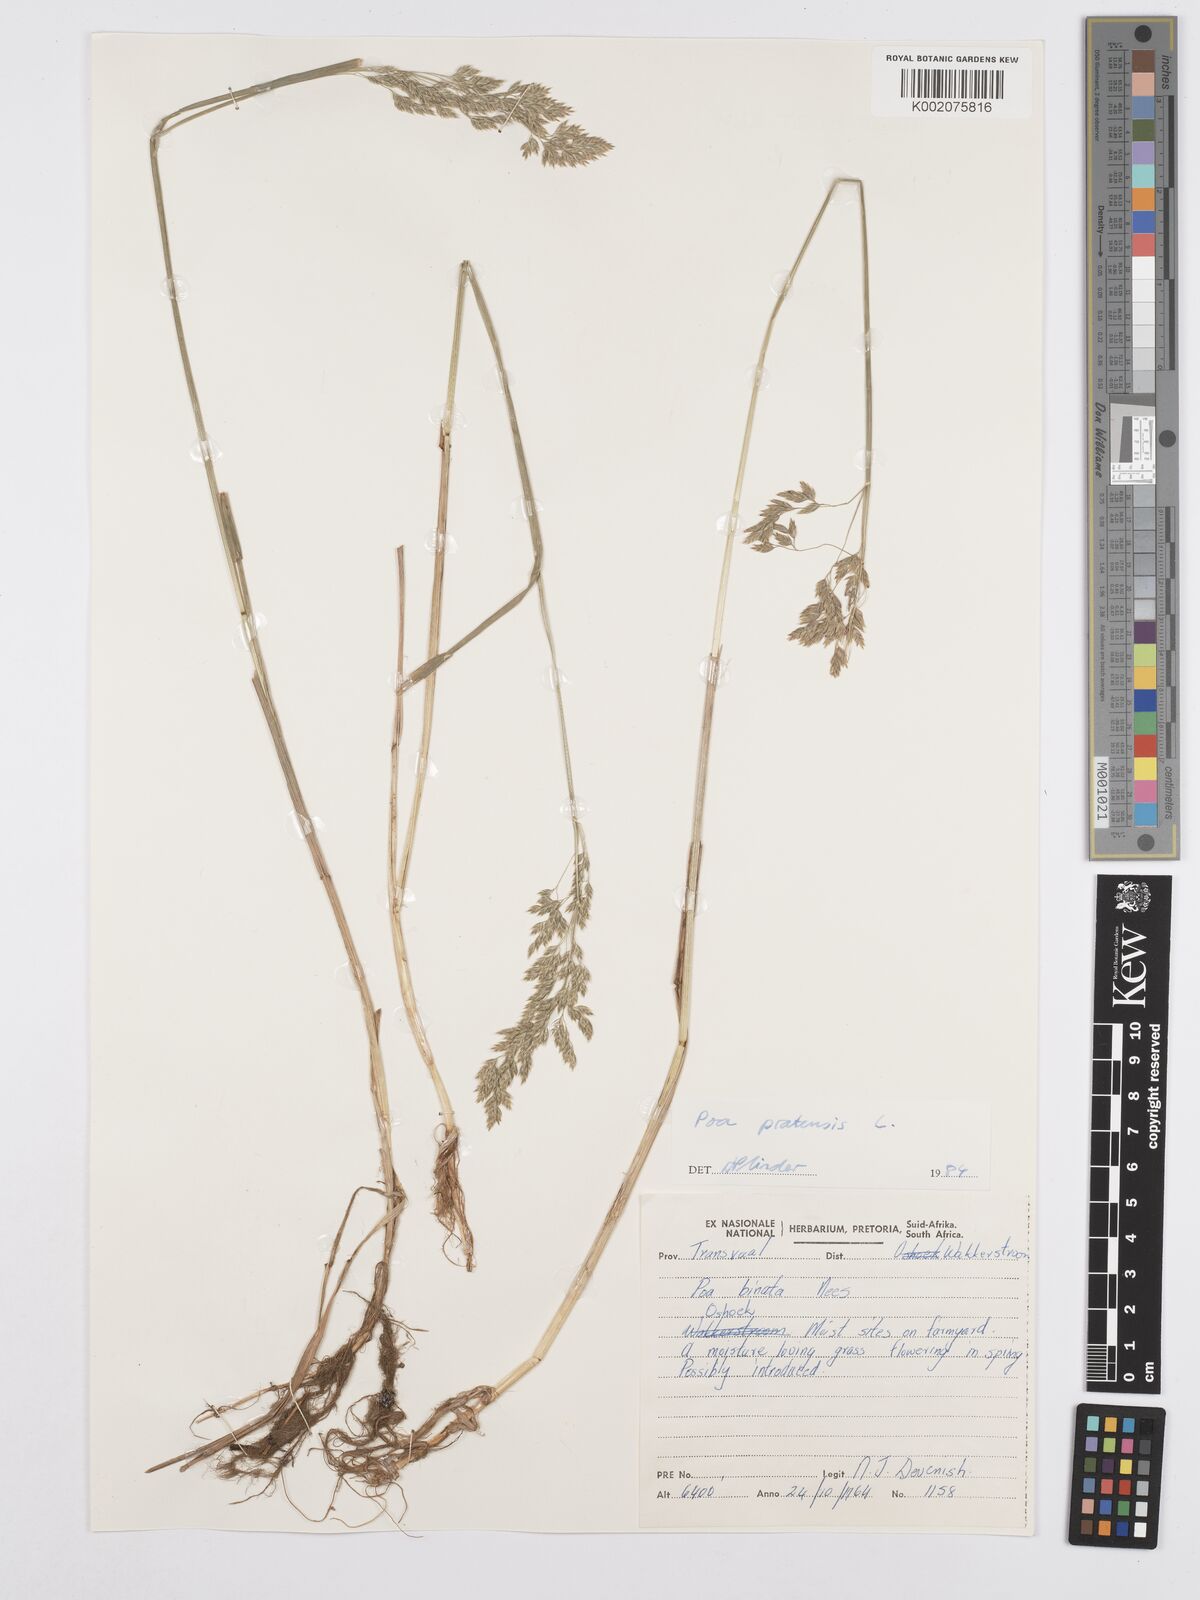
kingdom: Plantae
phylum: Tracheophyta
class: Liliopsida
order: Poales
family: Poaceae
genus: Poa
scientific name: Poa pratensis
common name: Kentucky bluegrass
